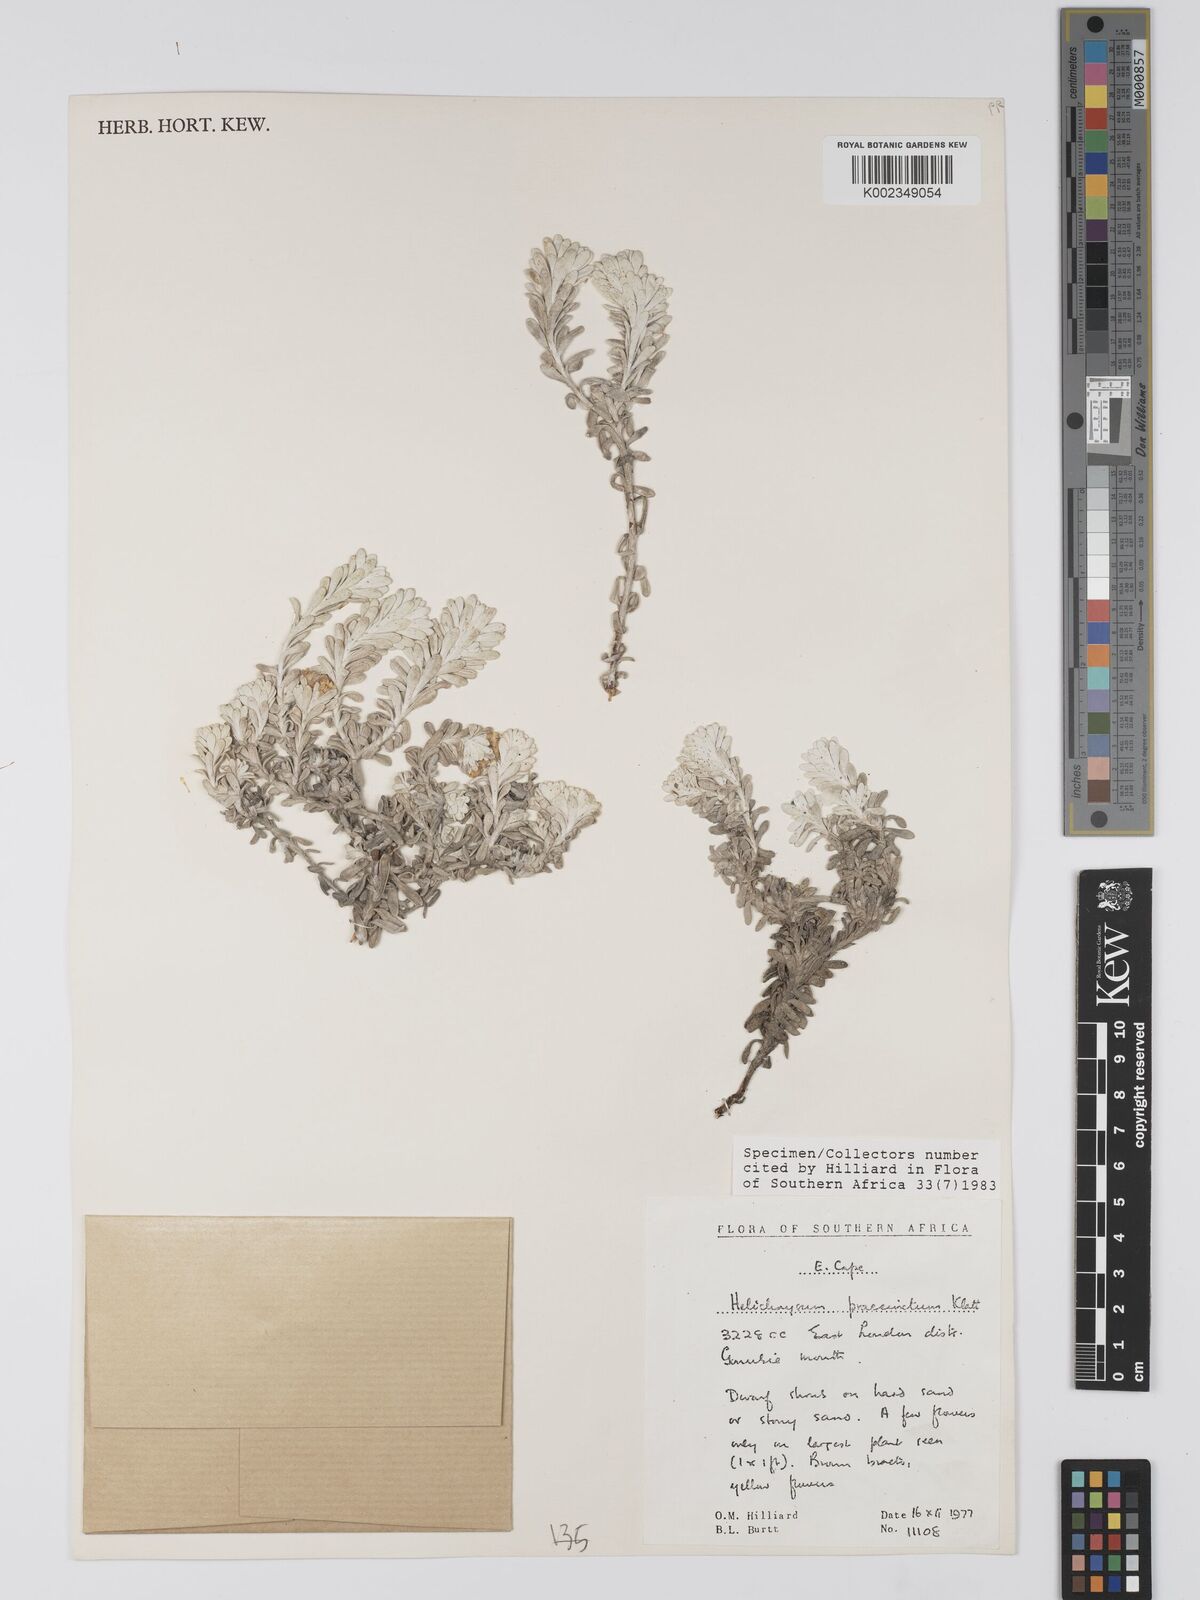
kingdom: Plantae
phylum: Tracheophyta
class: Magnoliopsida
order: Asterales
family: Asteraceae
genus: Helichrysum
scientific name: Helichrysum praecinctum
